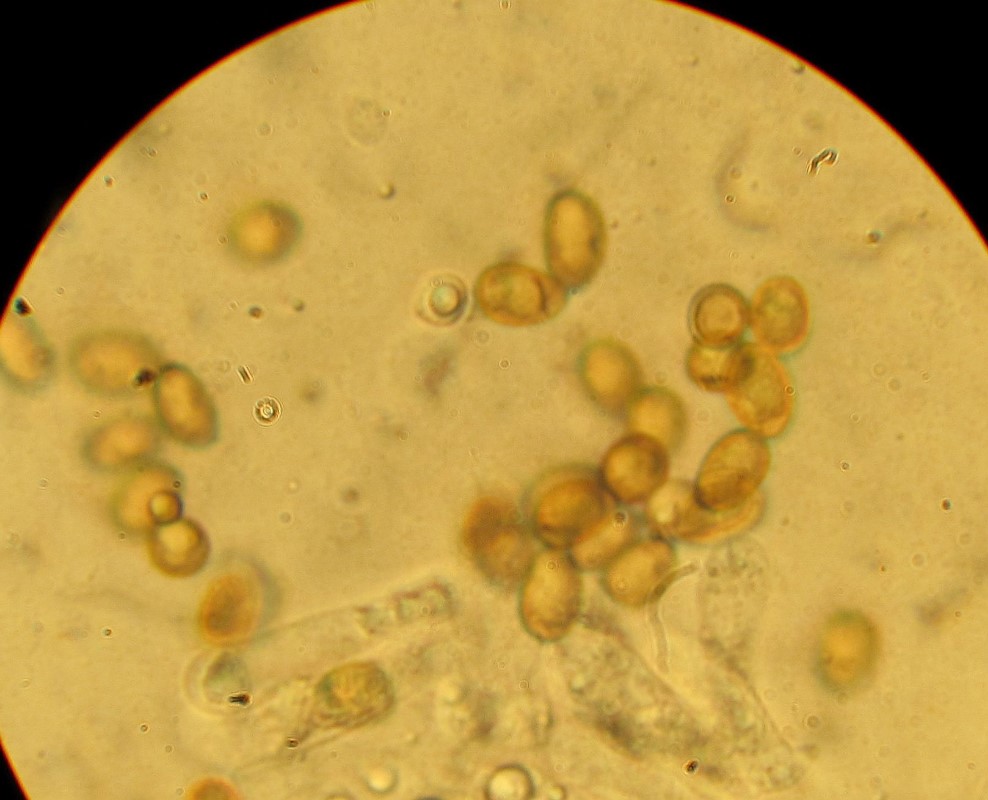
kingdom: Fungi
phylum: Basidiomycota
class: Agaricomycetes
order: Agaricales
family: Inocybaceae
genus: Inosperma
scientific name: Inosperma adaequatum
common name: vinrød trævlhat
